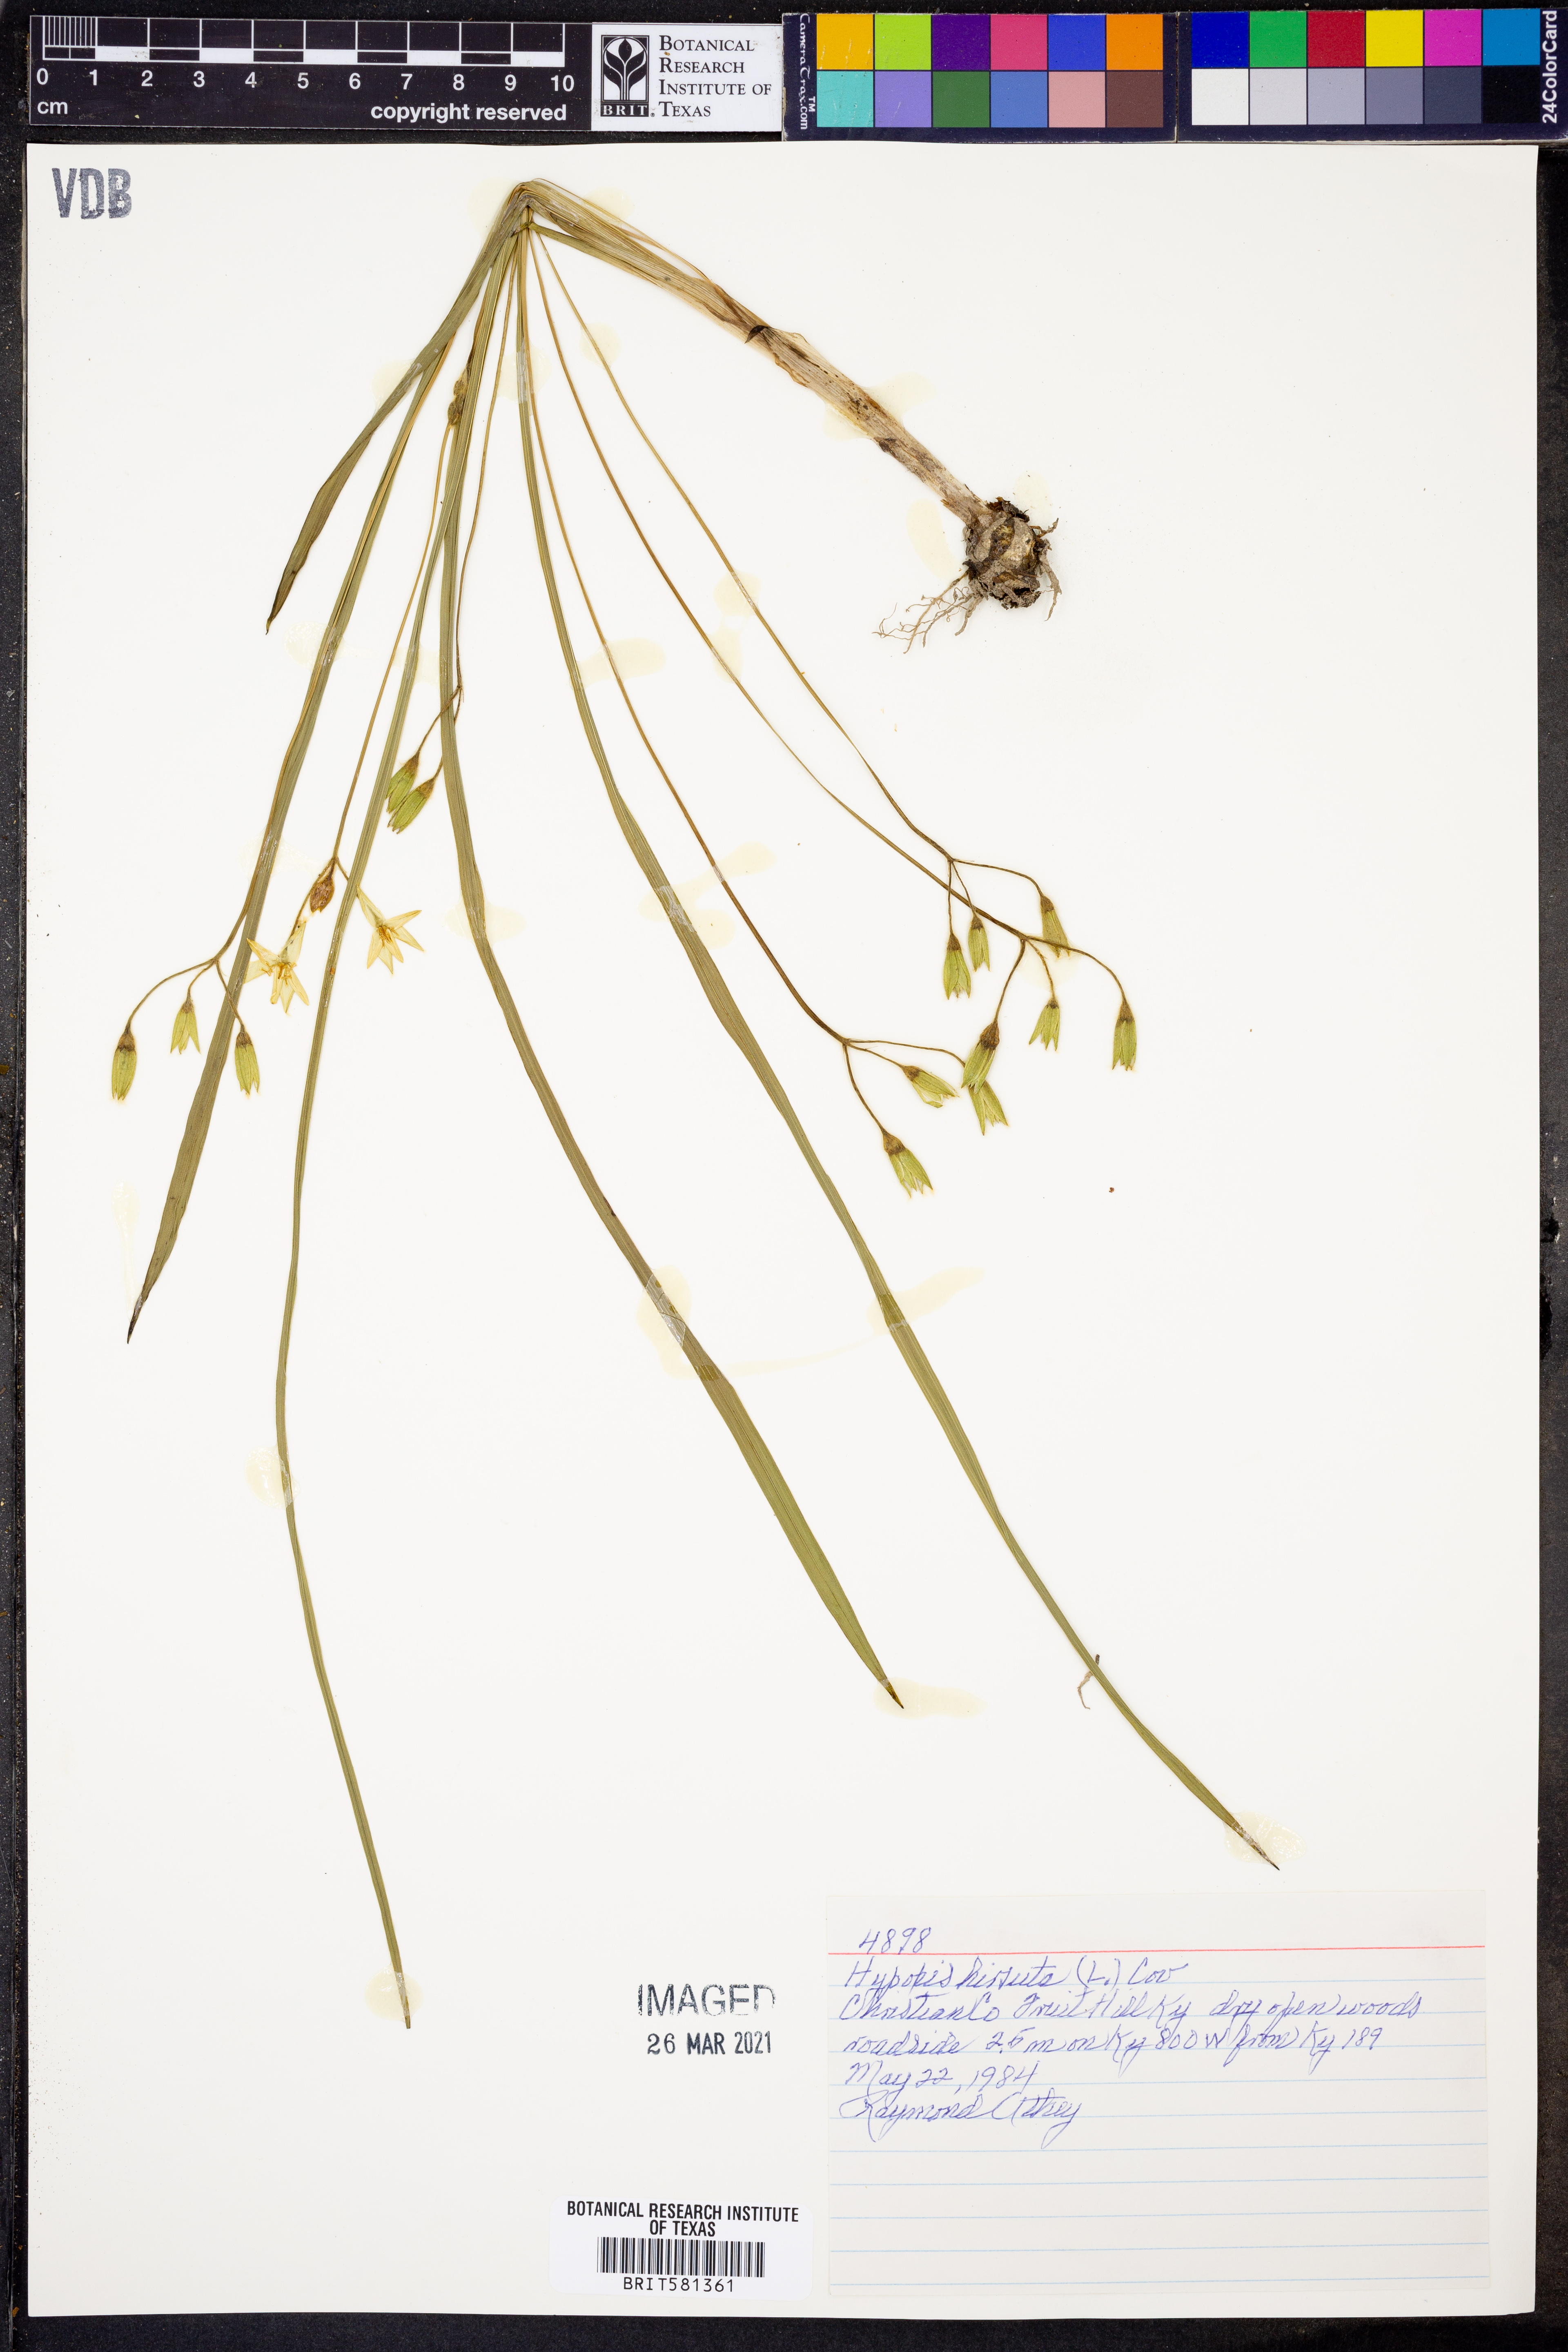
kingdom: Plantae
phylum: Tracheophyta
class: Liliopsida
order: Asparagales
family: Hypoxidaceae
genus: Hypoxis
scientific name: Hypoxis hirsuta
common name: Common goldstar
